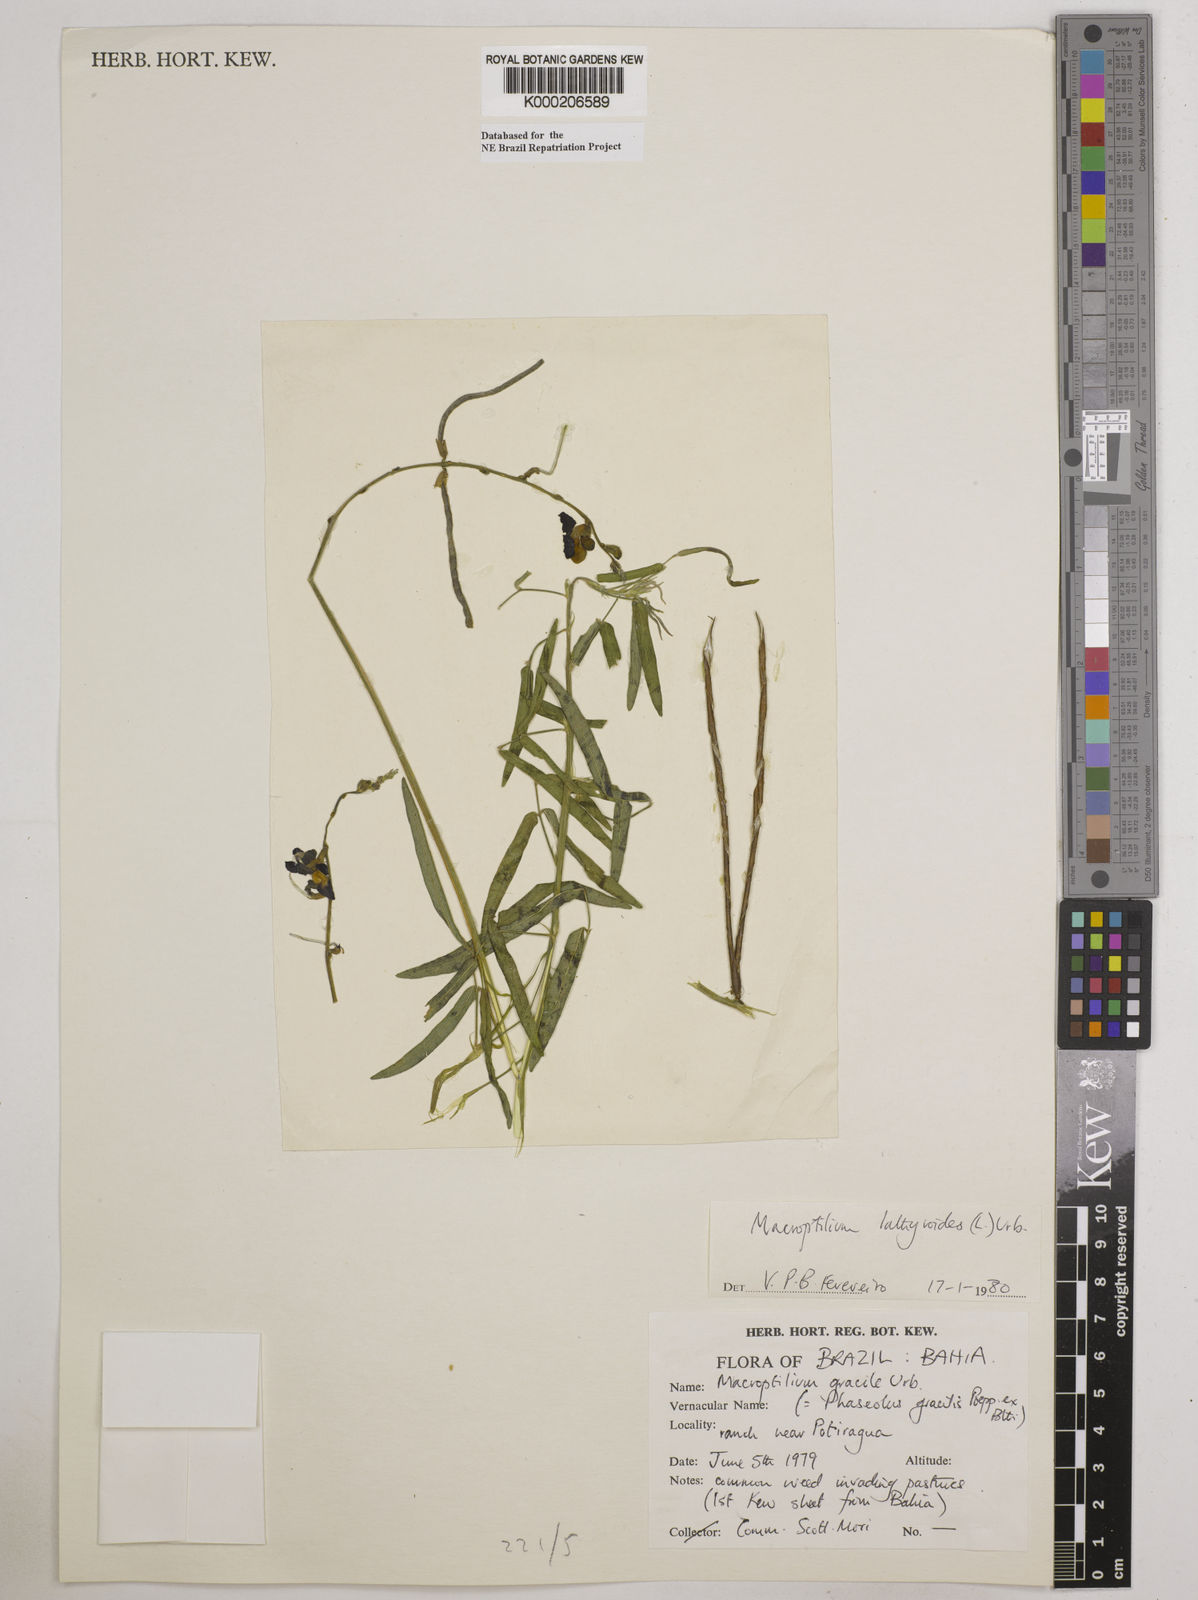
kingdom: Plantae
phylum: Tracheophyta
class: Magnoliopsida
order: Fabales
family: Fabaceae
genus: Macroptilium
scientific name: Macroptilium lathyroides
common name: Wild bushbean
